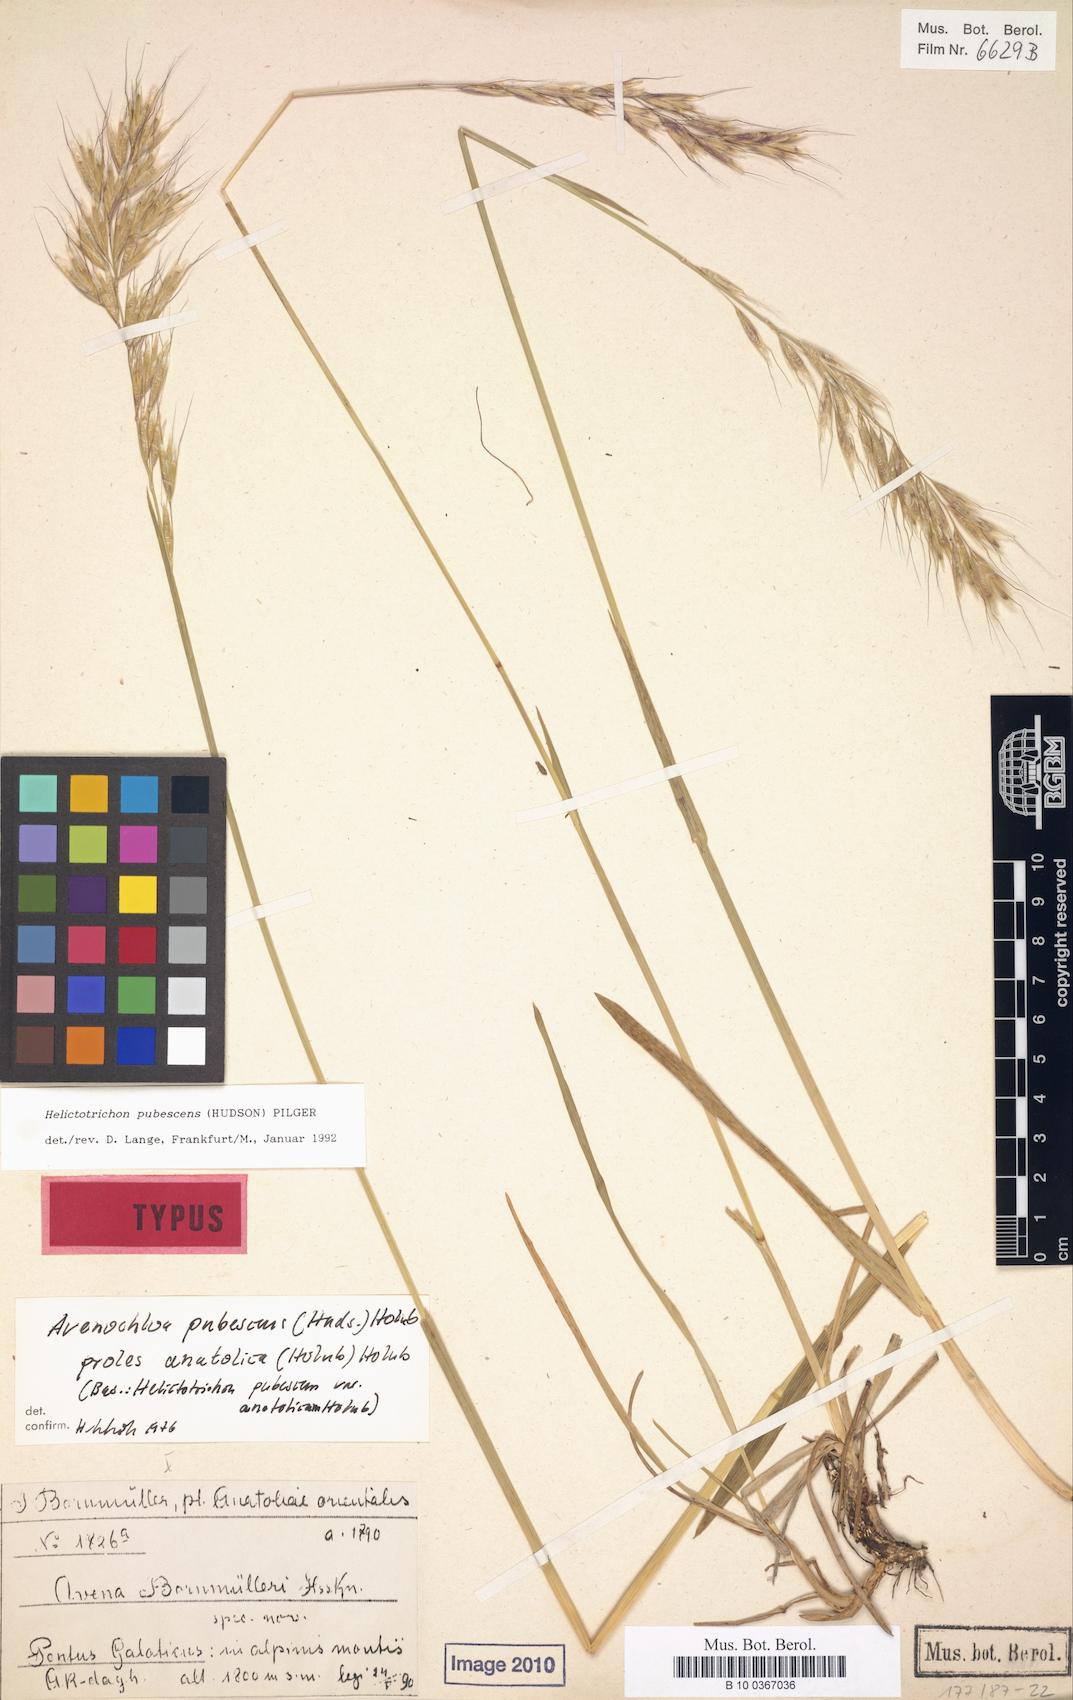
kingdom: Plantae
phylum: Tracheophyta
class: Liliopsida
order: Poales
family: Poaceae
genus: Avenula
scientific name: Avenula pubescens
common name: Downy alpine oatgrass
